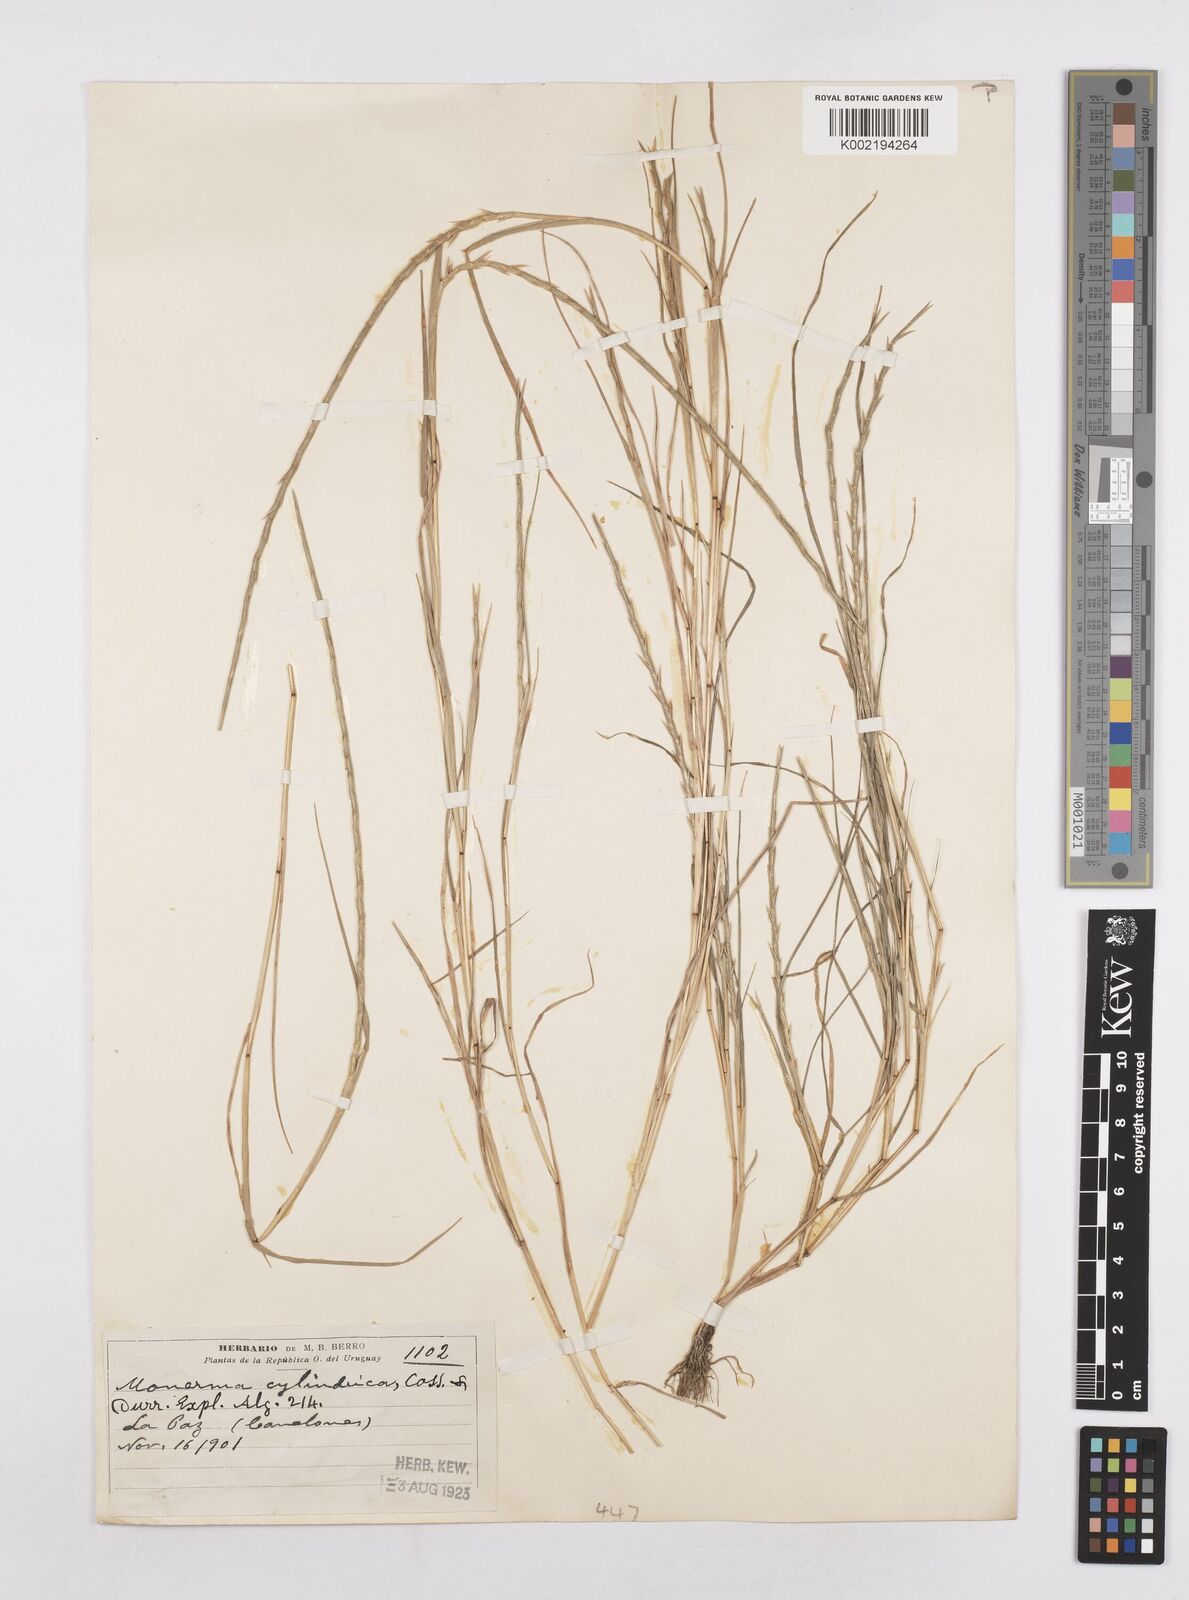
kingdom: Plantae
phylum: Tracheophyta
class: Liliopsida
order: Poales
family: Poaceae
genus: Parapholis
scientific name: Parapholis cylindrica
